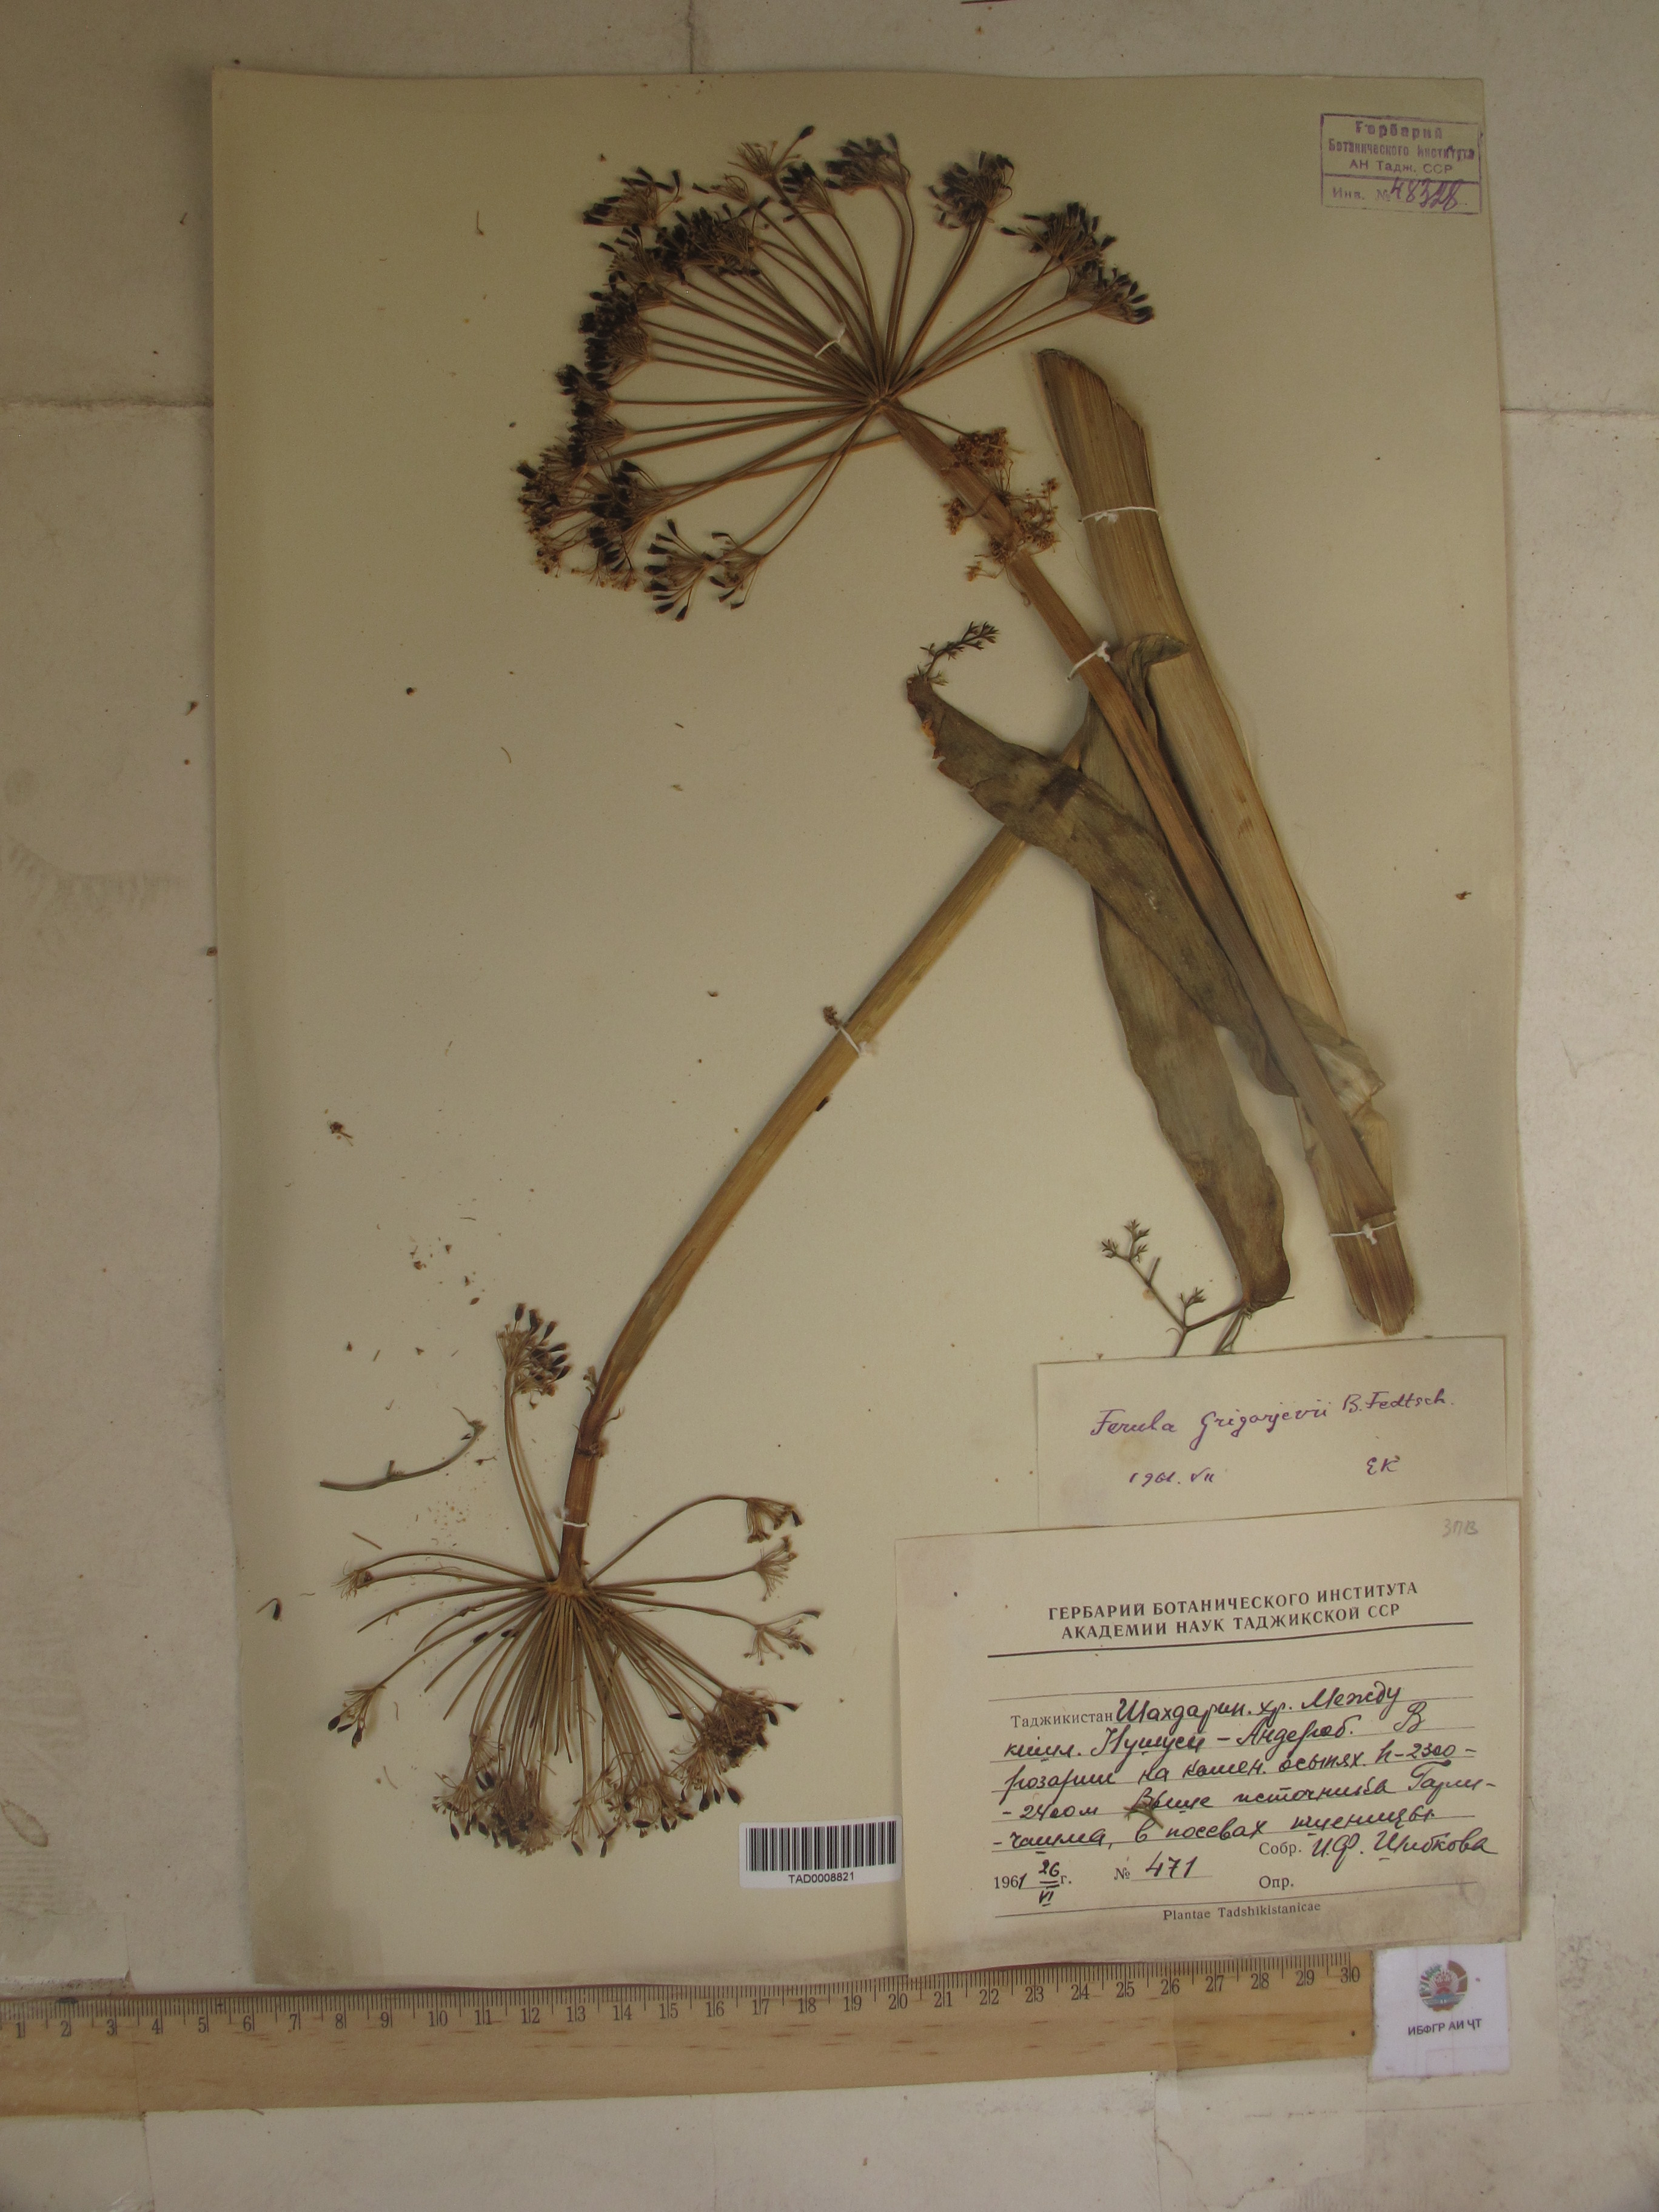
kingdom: Plantae
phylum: Tracheophyta
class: Magnoliopsida
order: Apiales
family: Apiaceae
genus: Ferula
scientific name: Ferula grigoriewii
